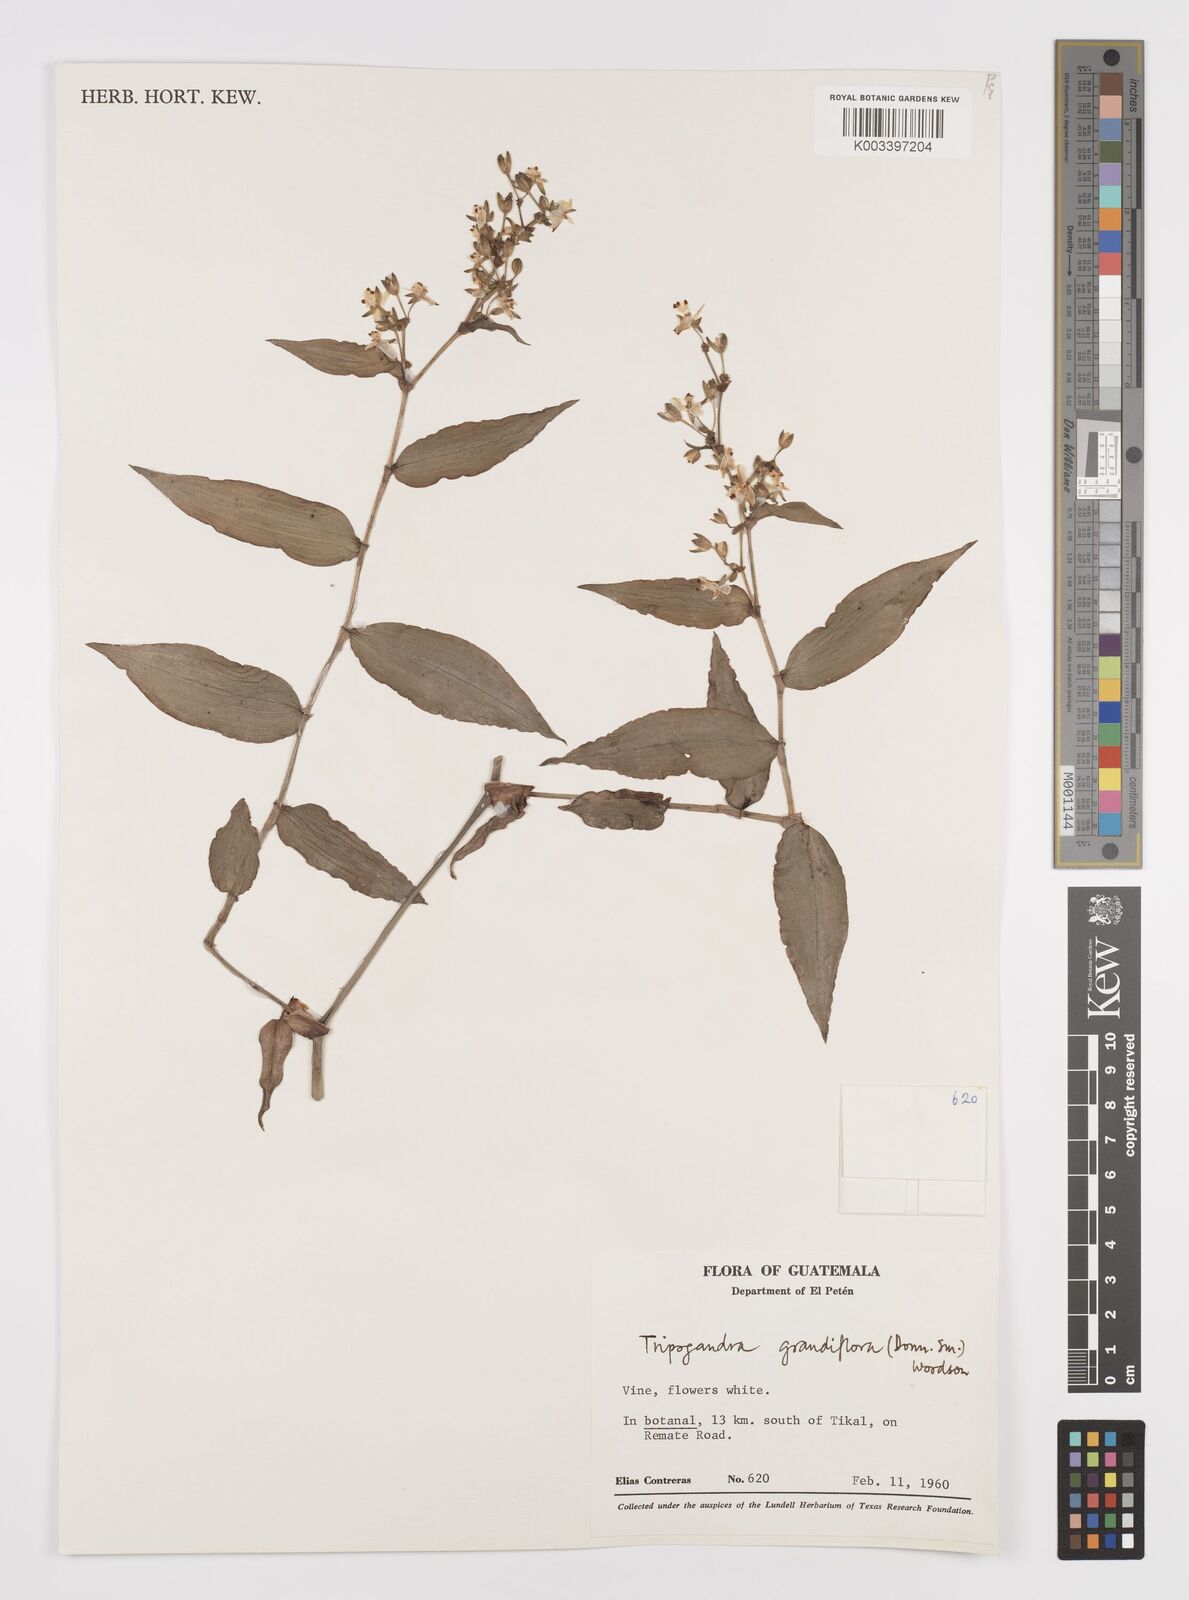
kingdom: Plantae
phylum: Tracheophyta
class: Liliopsida
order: Commelinales
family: Commelinaceae
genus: Callisia
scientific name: Callisia grandiflora
